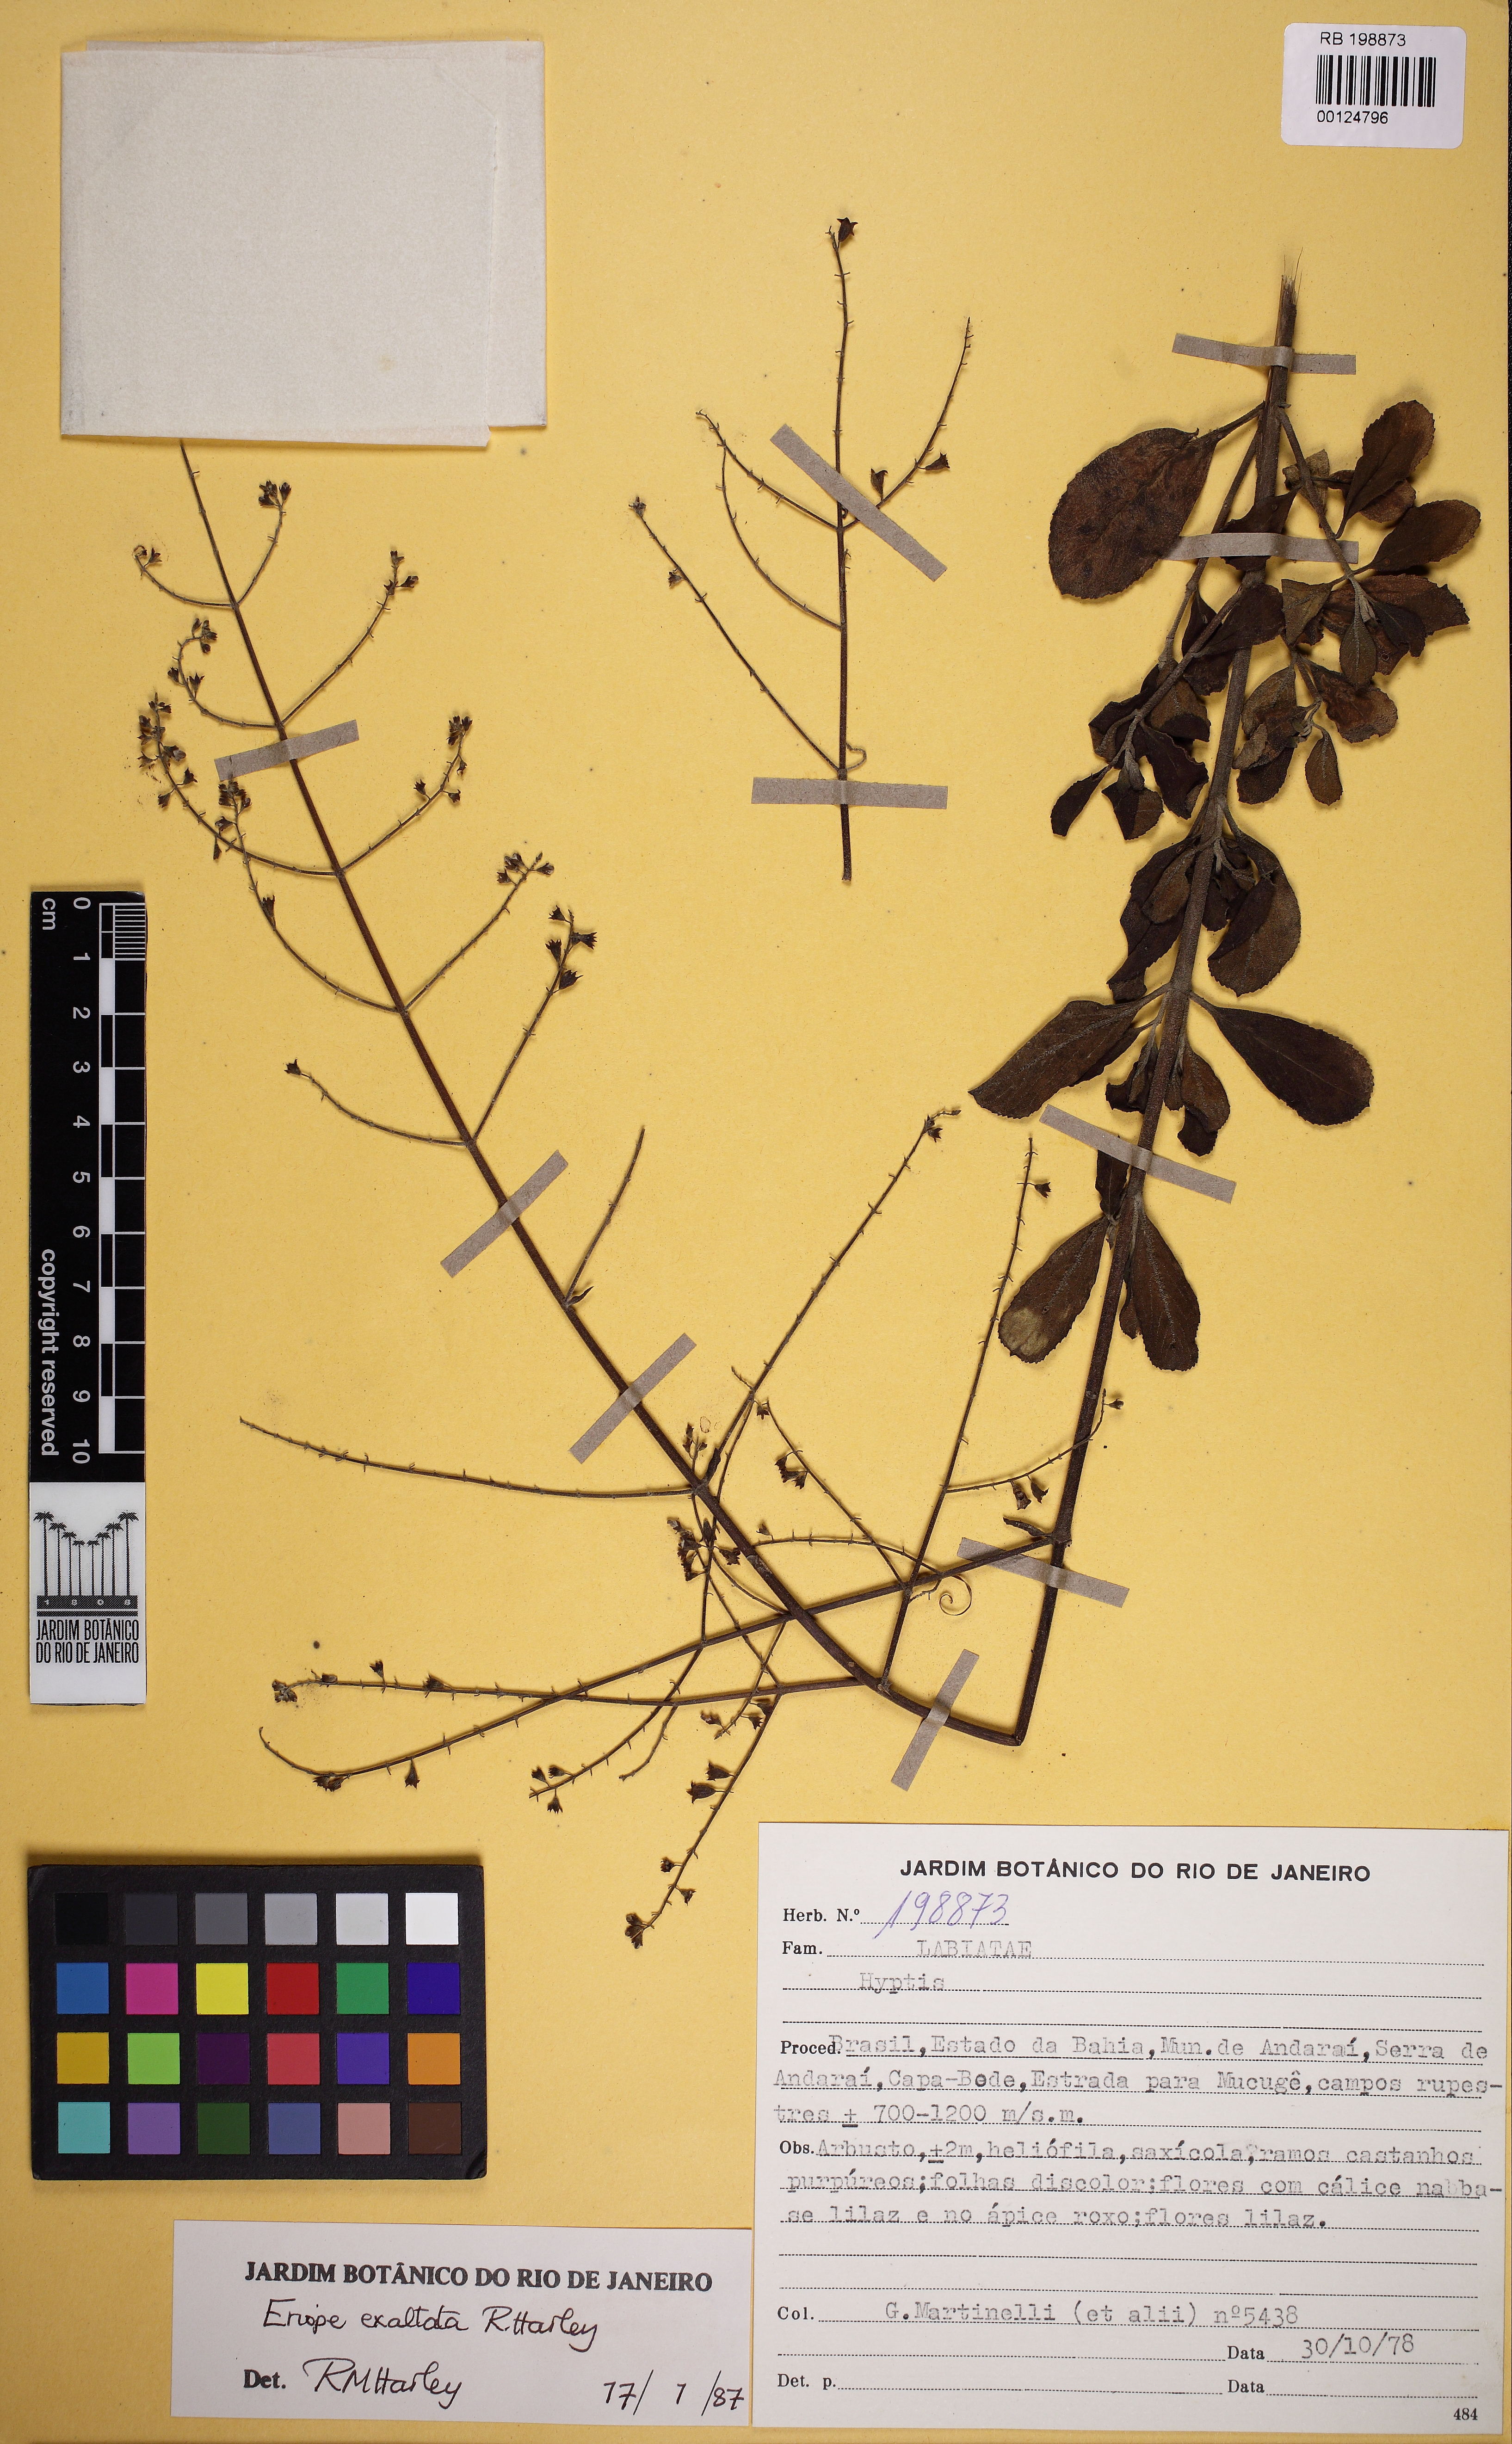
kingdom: Plantae
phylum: Tracheophyta
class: Magnoliopsida
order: Lamiales
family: Lamiaceae
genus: Hyptis
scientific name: Hyptis
